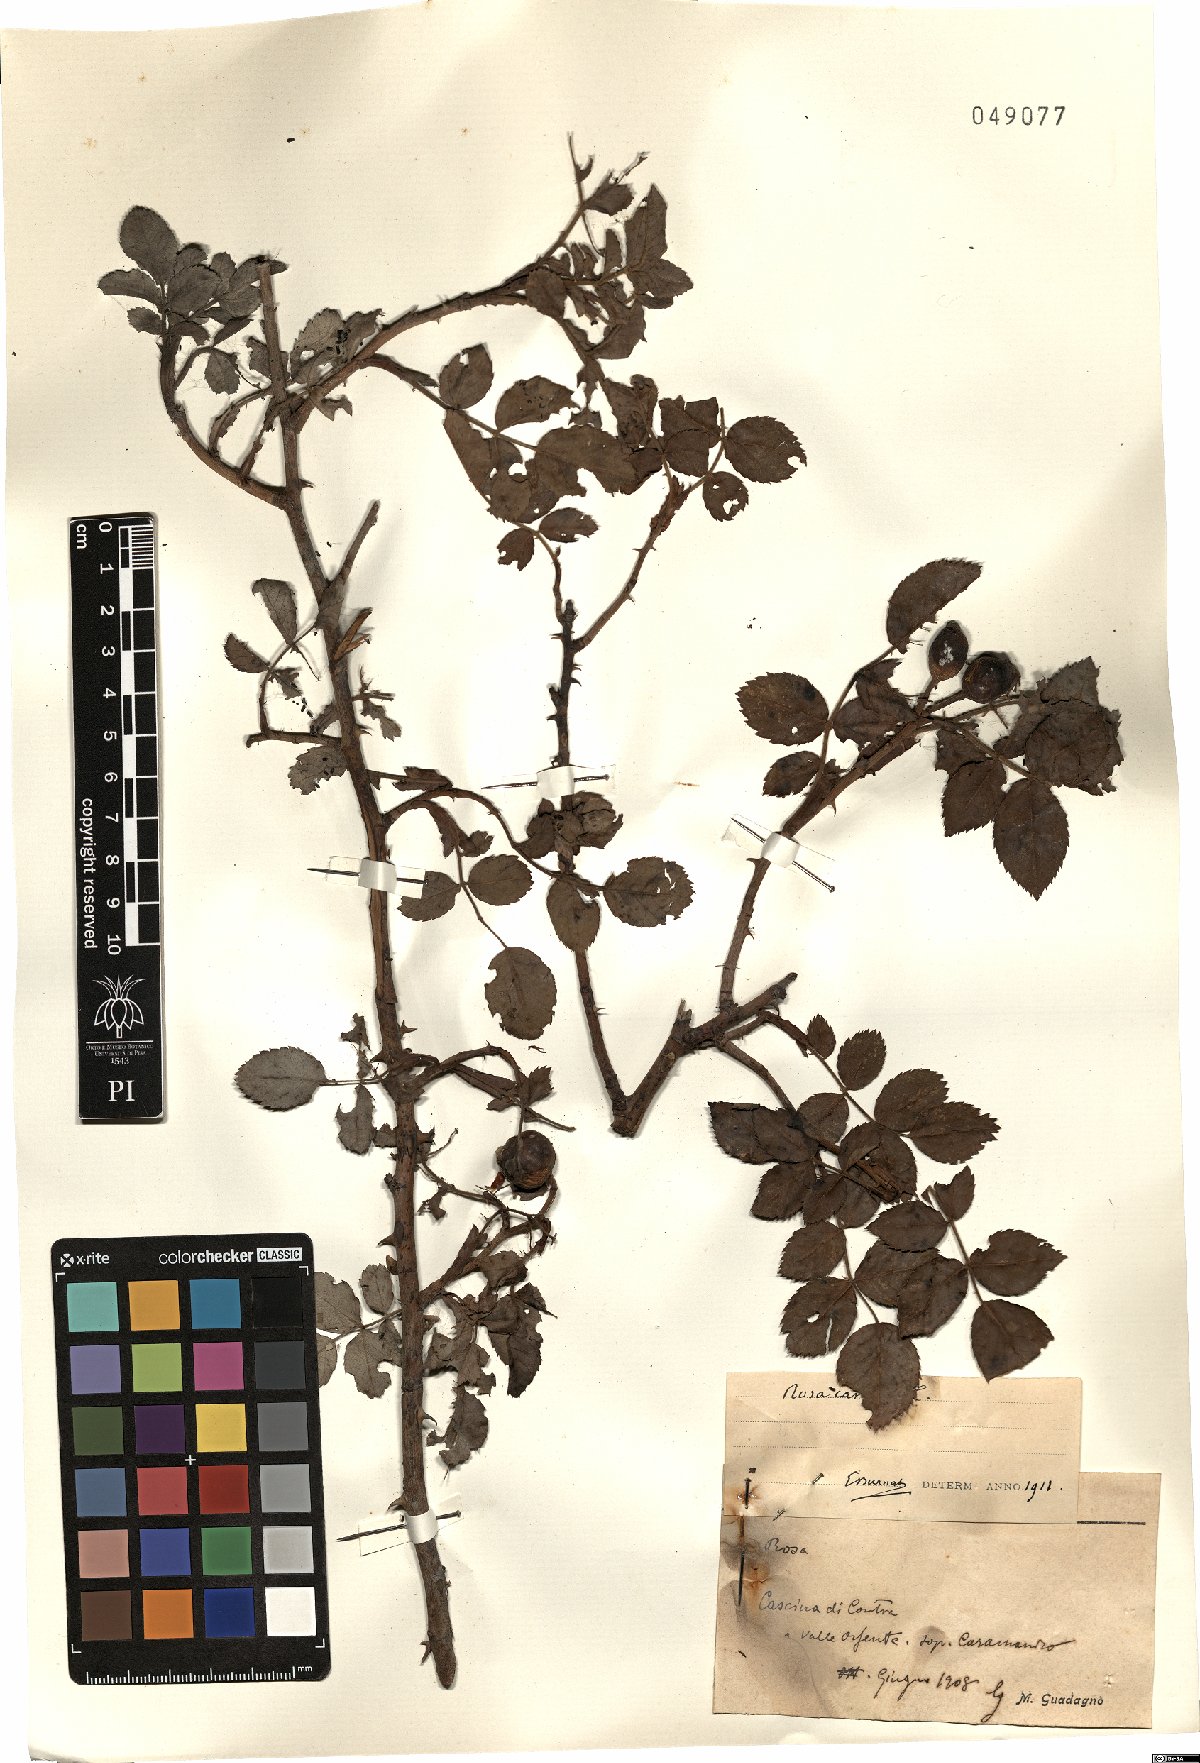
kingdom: Plantae
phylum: Tracheophyta
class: Magnoliopsida
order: Rosales
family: Rosaceae
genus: Rosa
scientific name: Rosa canina
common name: Dog rose
